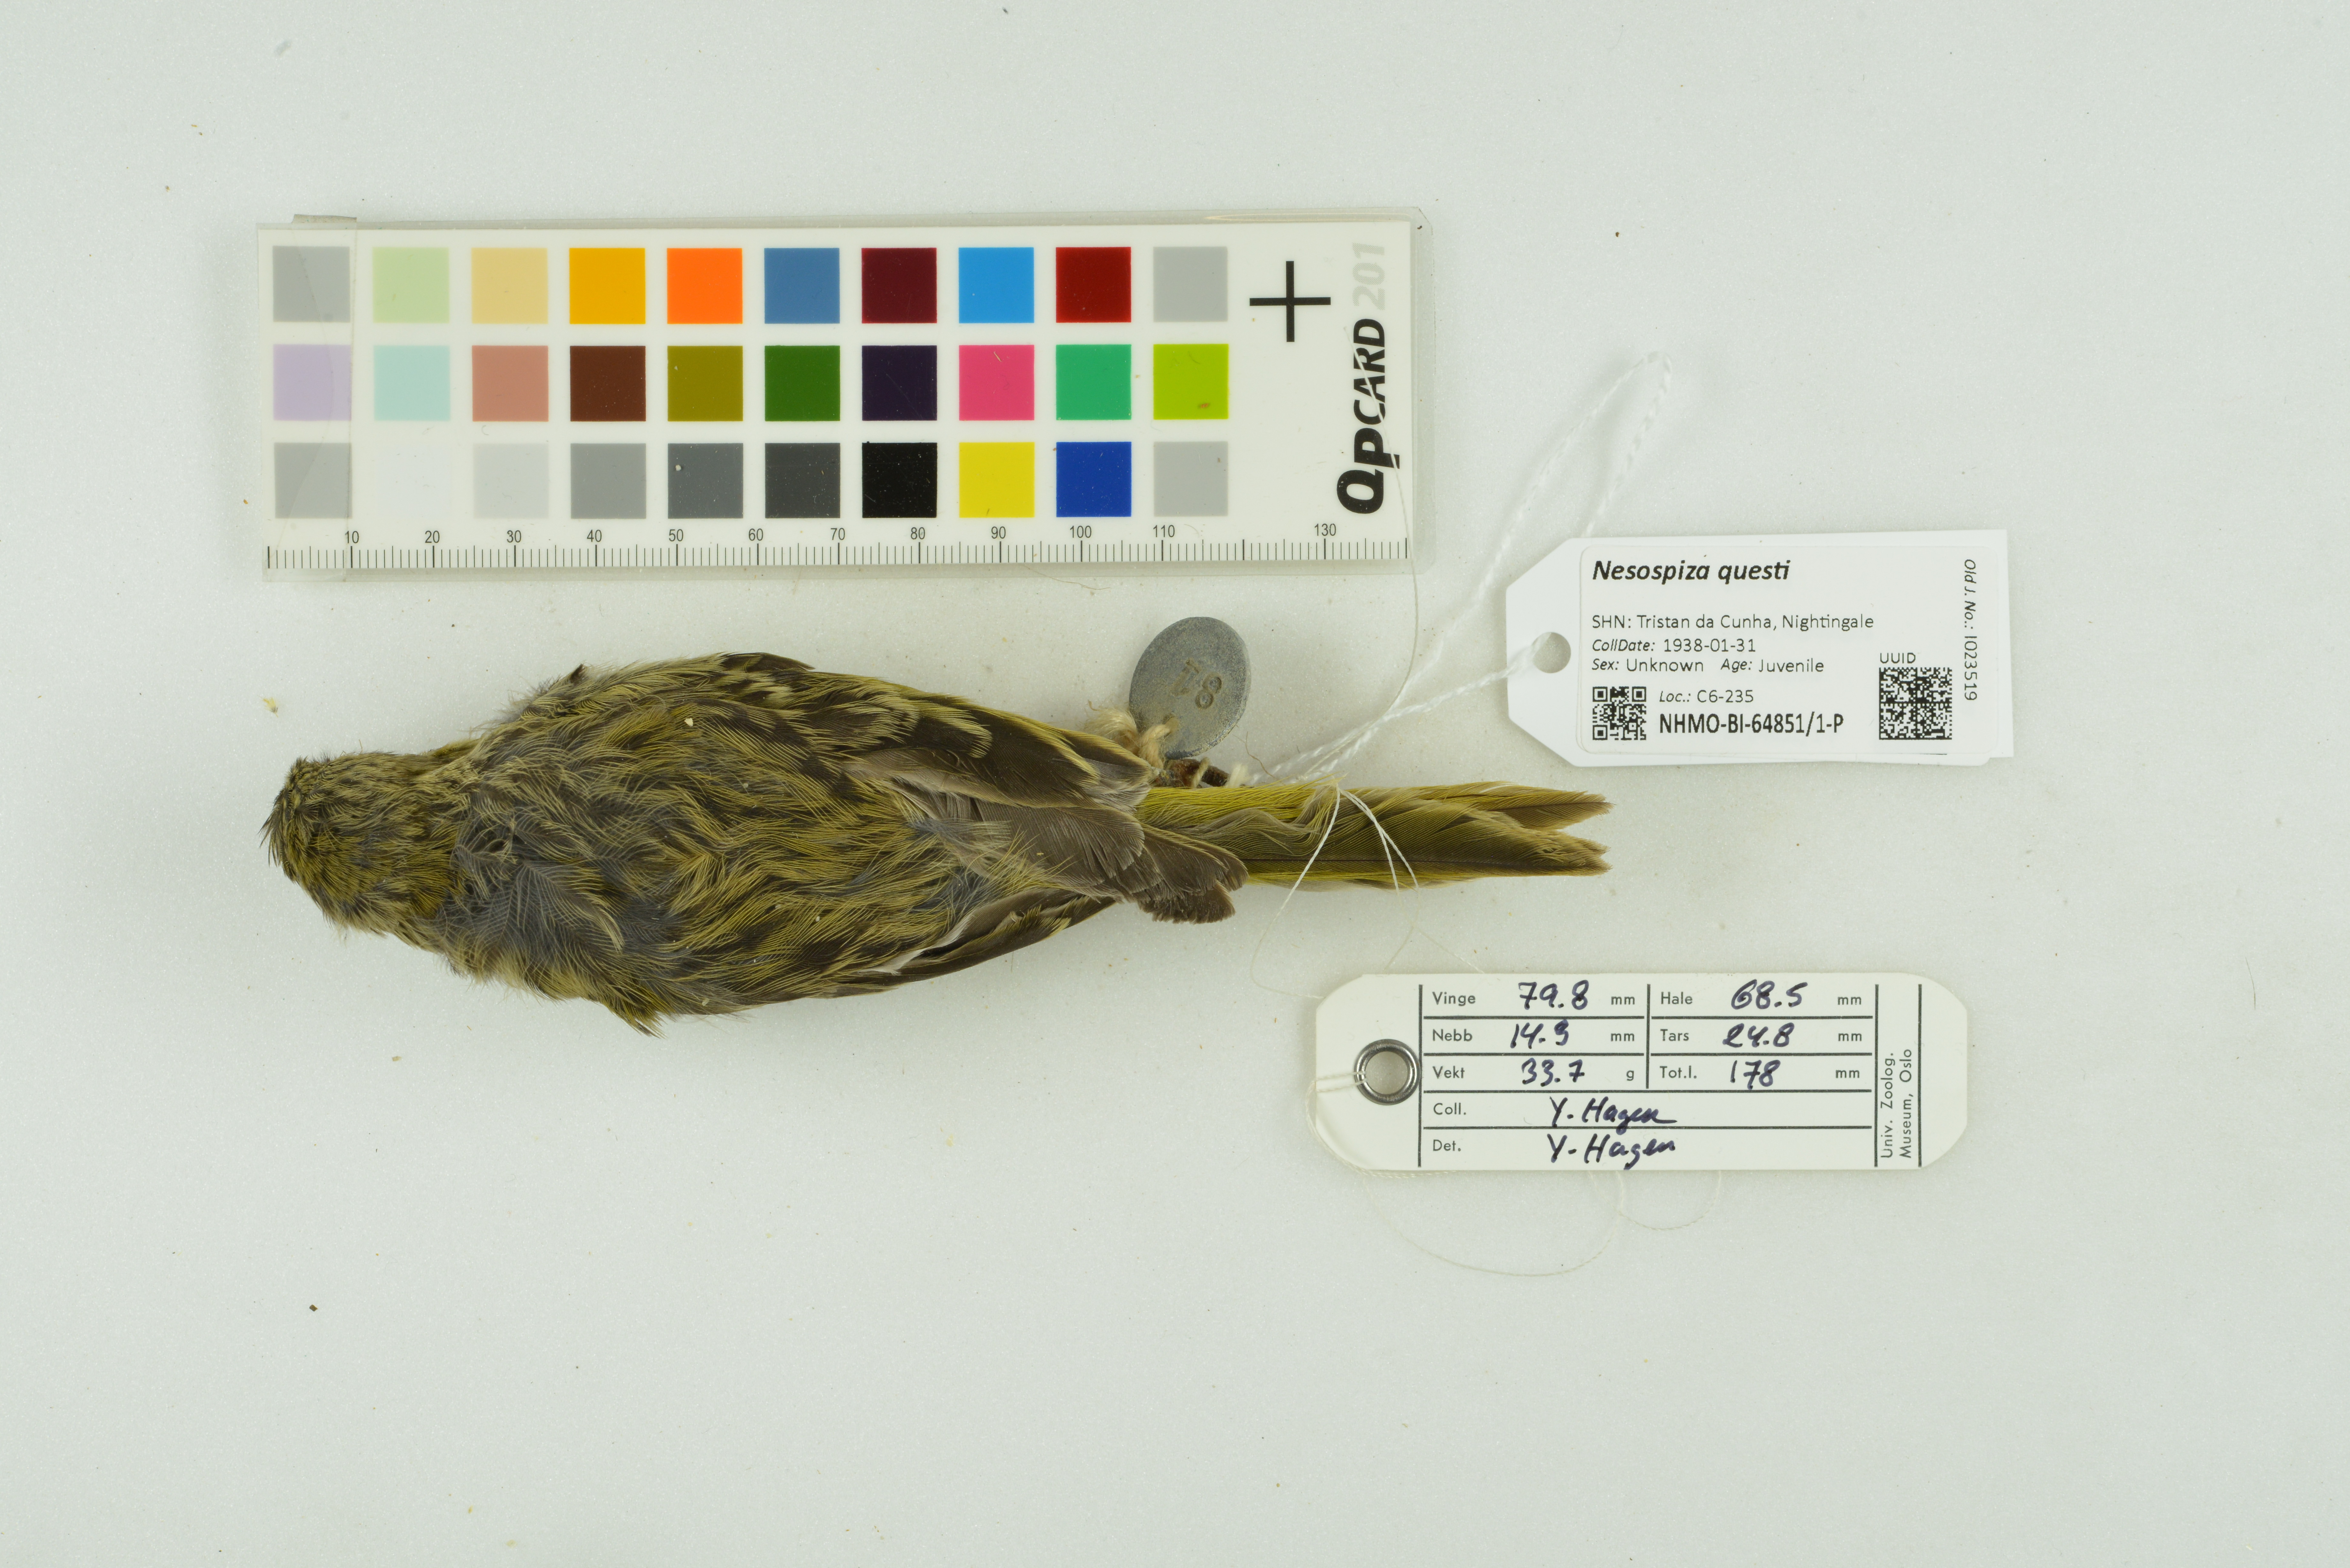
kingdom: Animalia
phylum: Chordata
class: Aves
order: Passeriformes
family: Thraupidae
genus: Nesospiza
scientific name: Nesospiza questi
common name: Nightingale island finch
